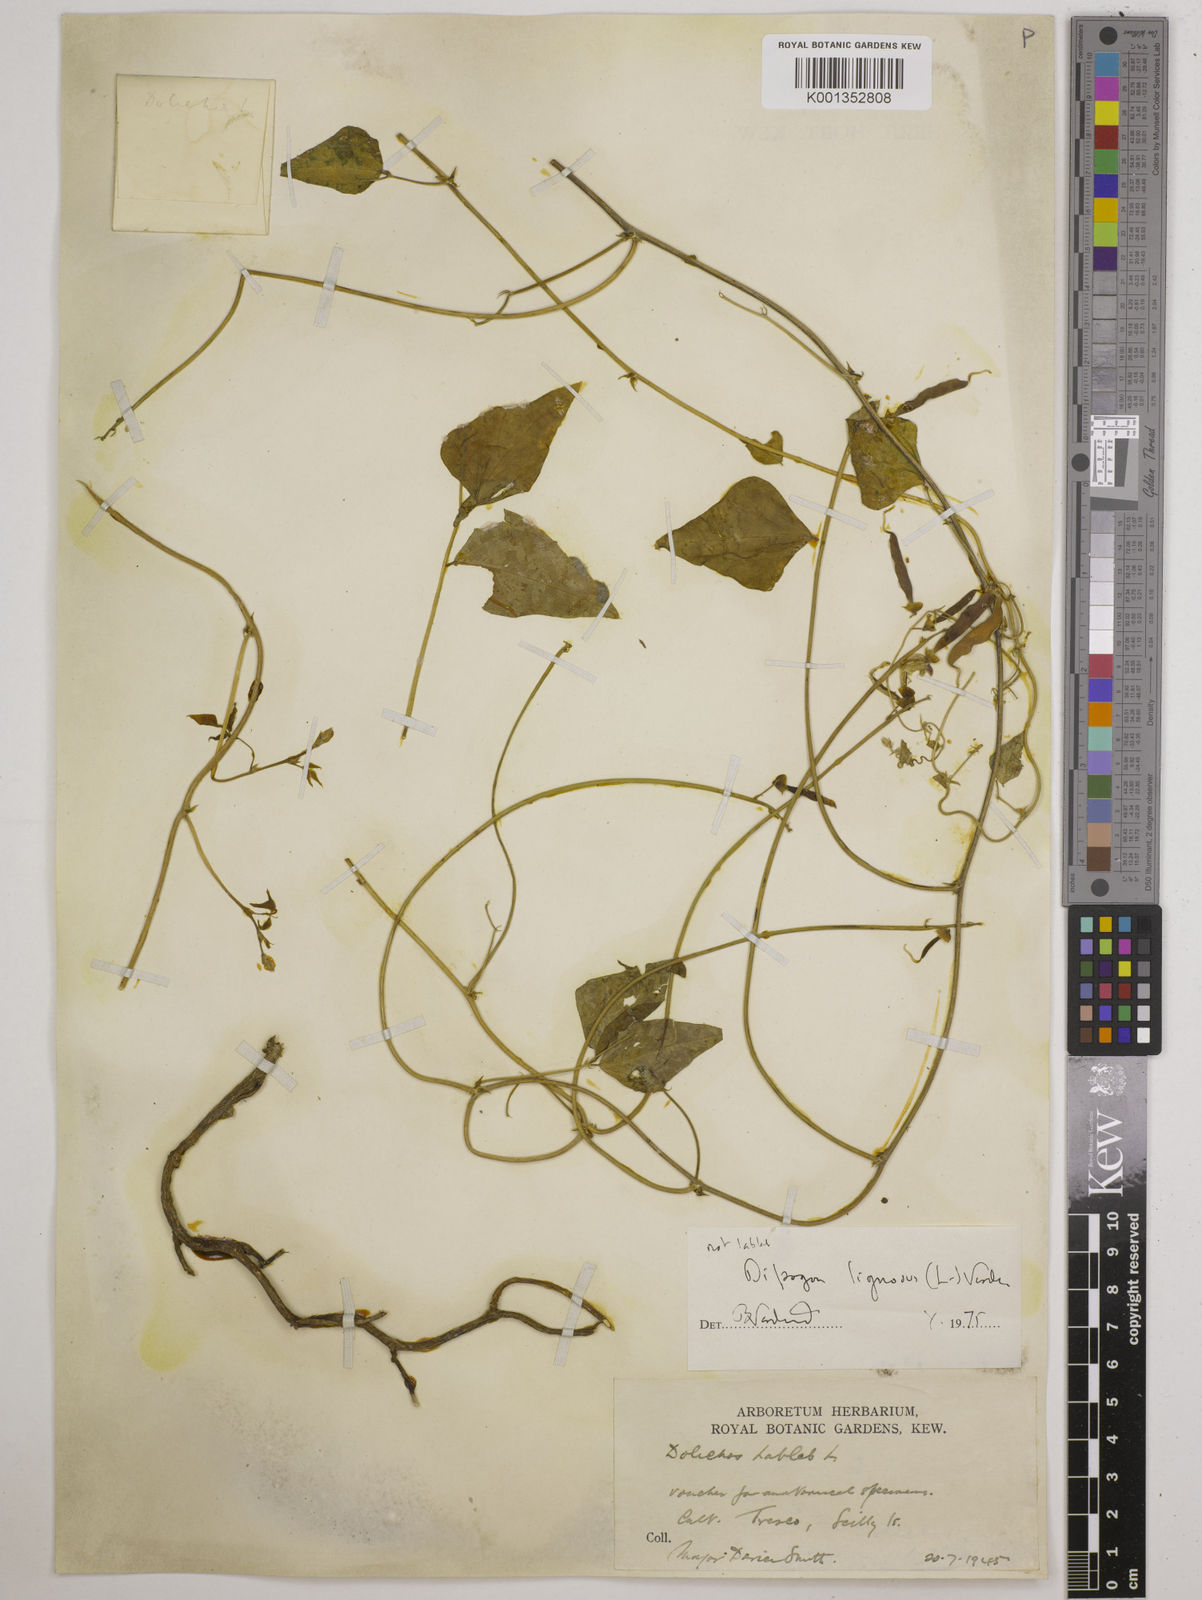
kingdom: Plantae
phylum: Tracheophyta
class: Magnoliopsida
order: Fabales
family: Fabaceae
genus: Dipogon
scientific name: Dipogon lignosus
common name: Okie bean
